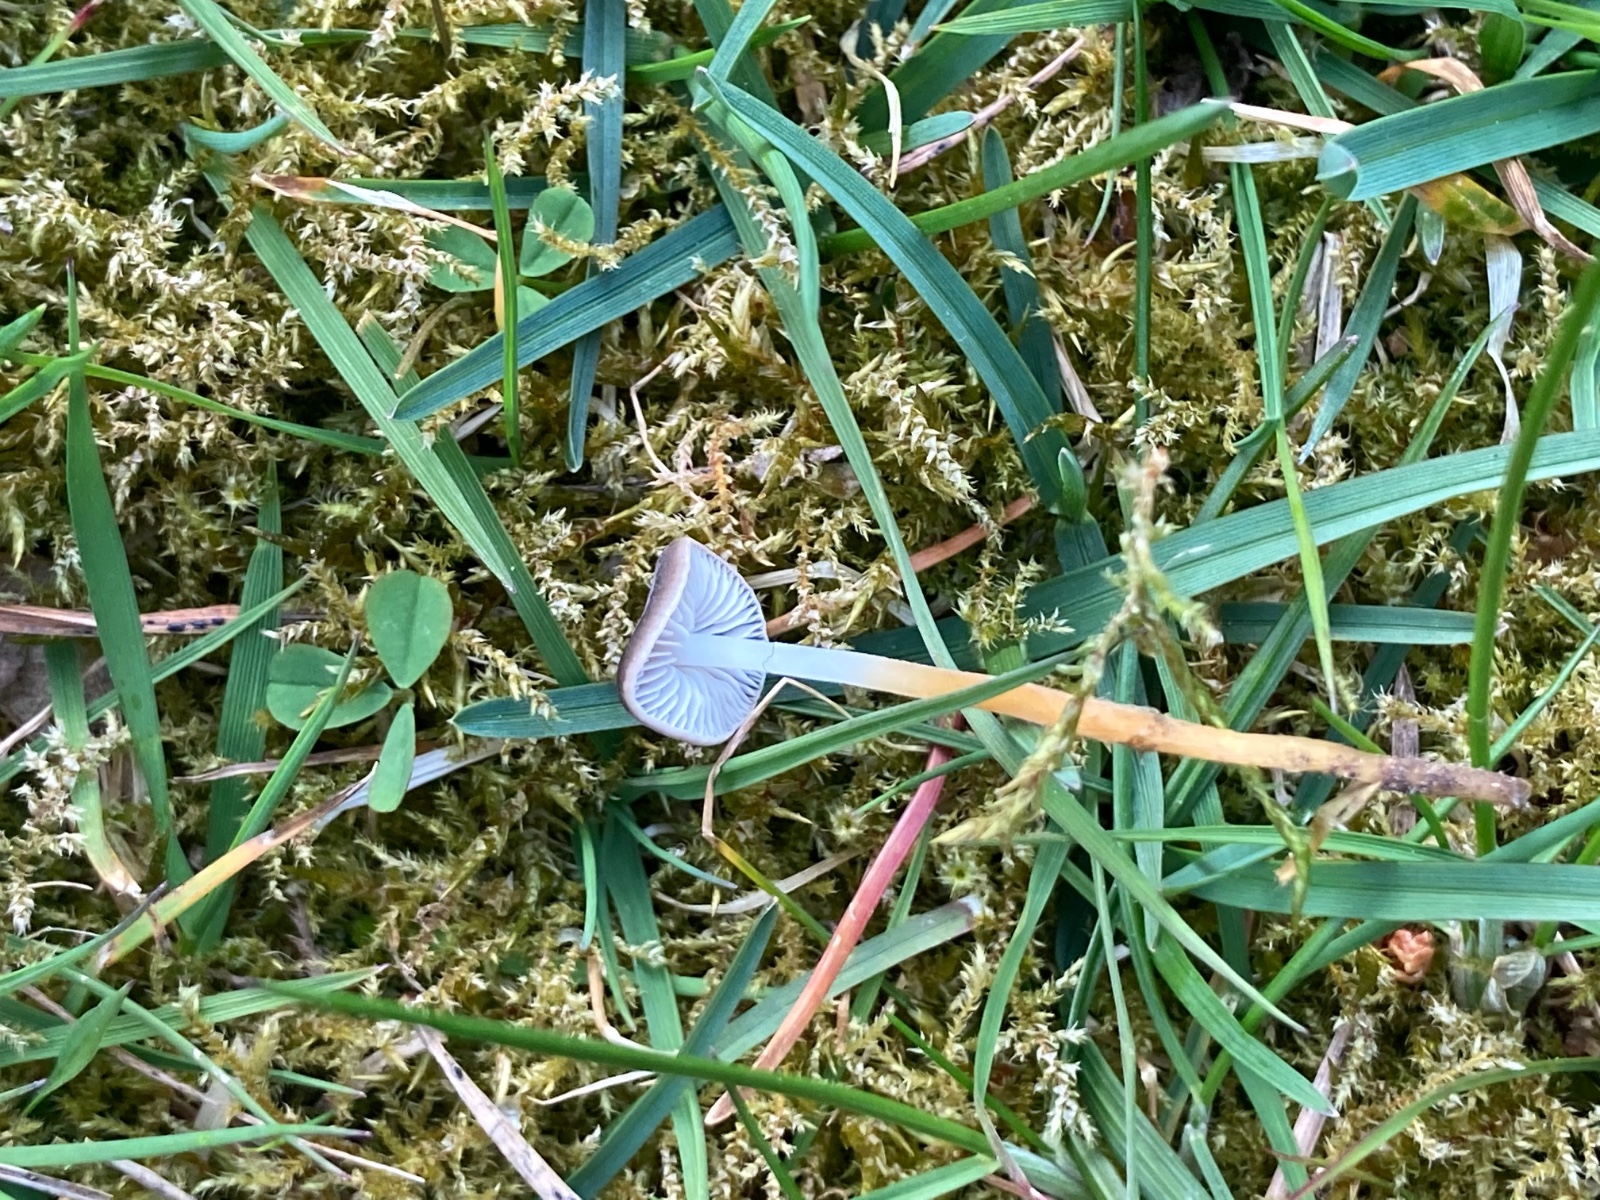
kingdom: Fungi
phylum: Basidiomycota
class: Agaricomycetes
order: Agaricales
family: Physalacriaceae
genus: Strobilurus
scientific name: Strobilurus tenacellus
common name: sommer-koglehat
